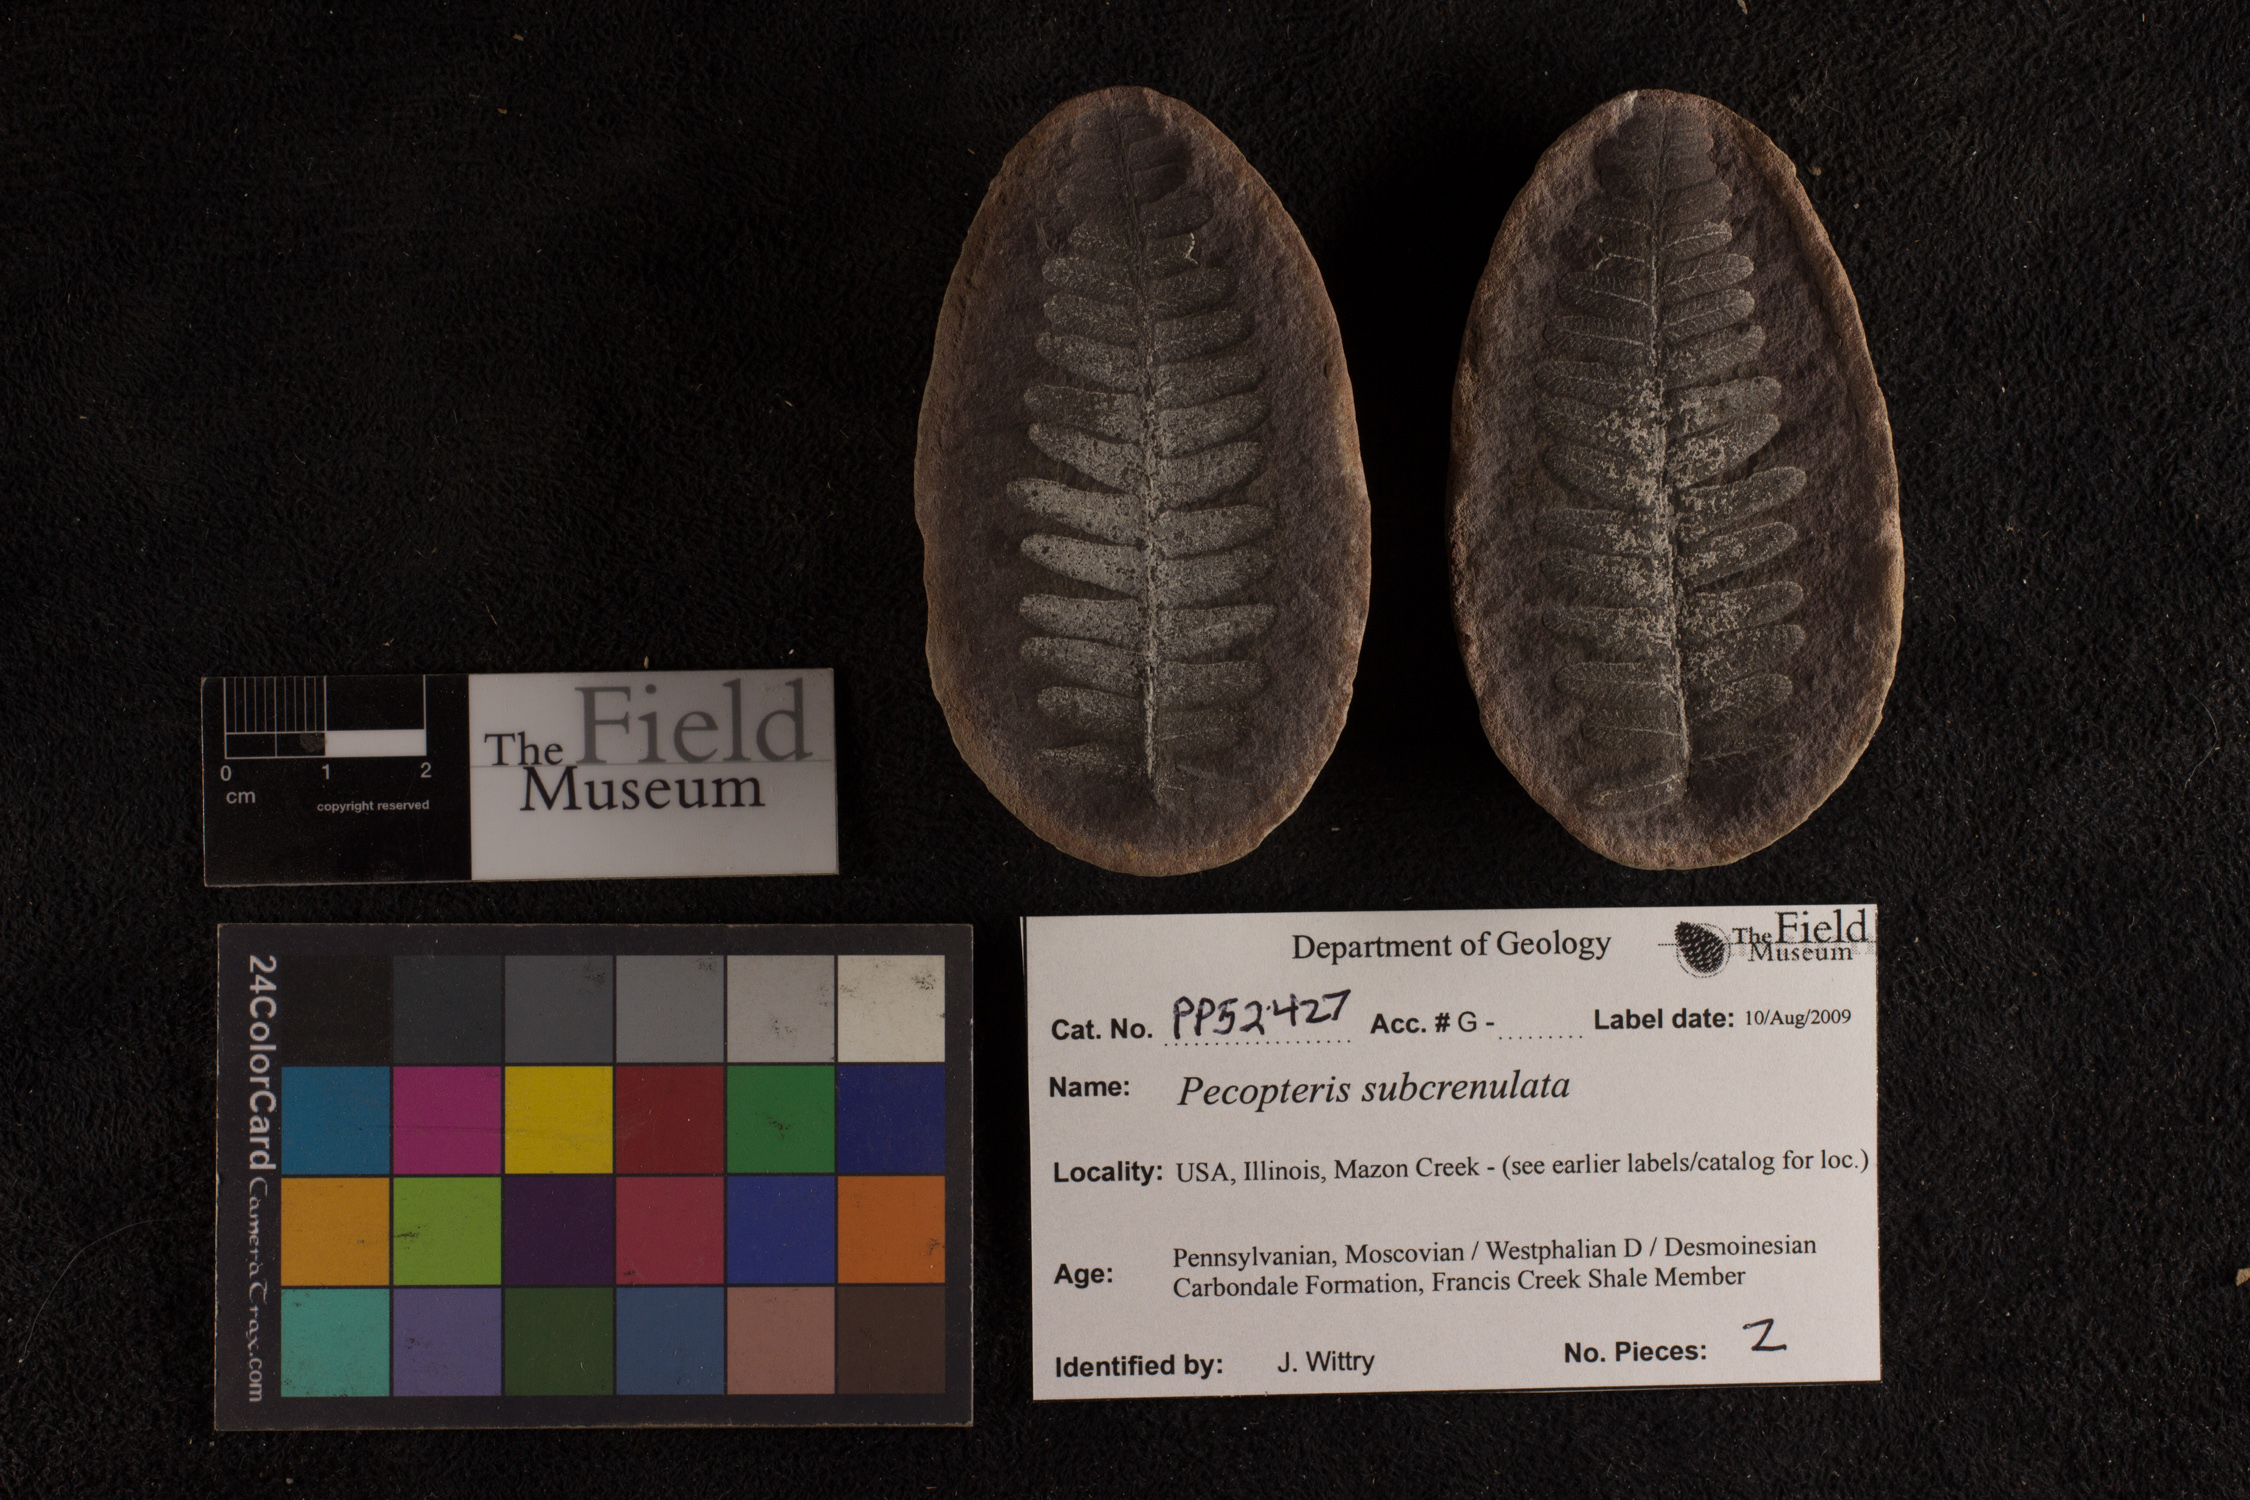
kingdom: Plantae
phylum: Tracheophyta
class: Polypodiopsida
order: Marattiales
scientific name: Marattiales
